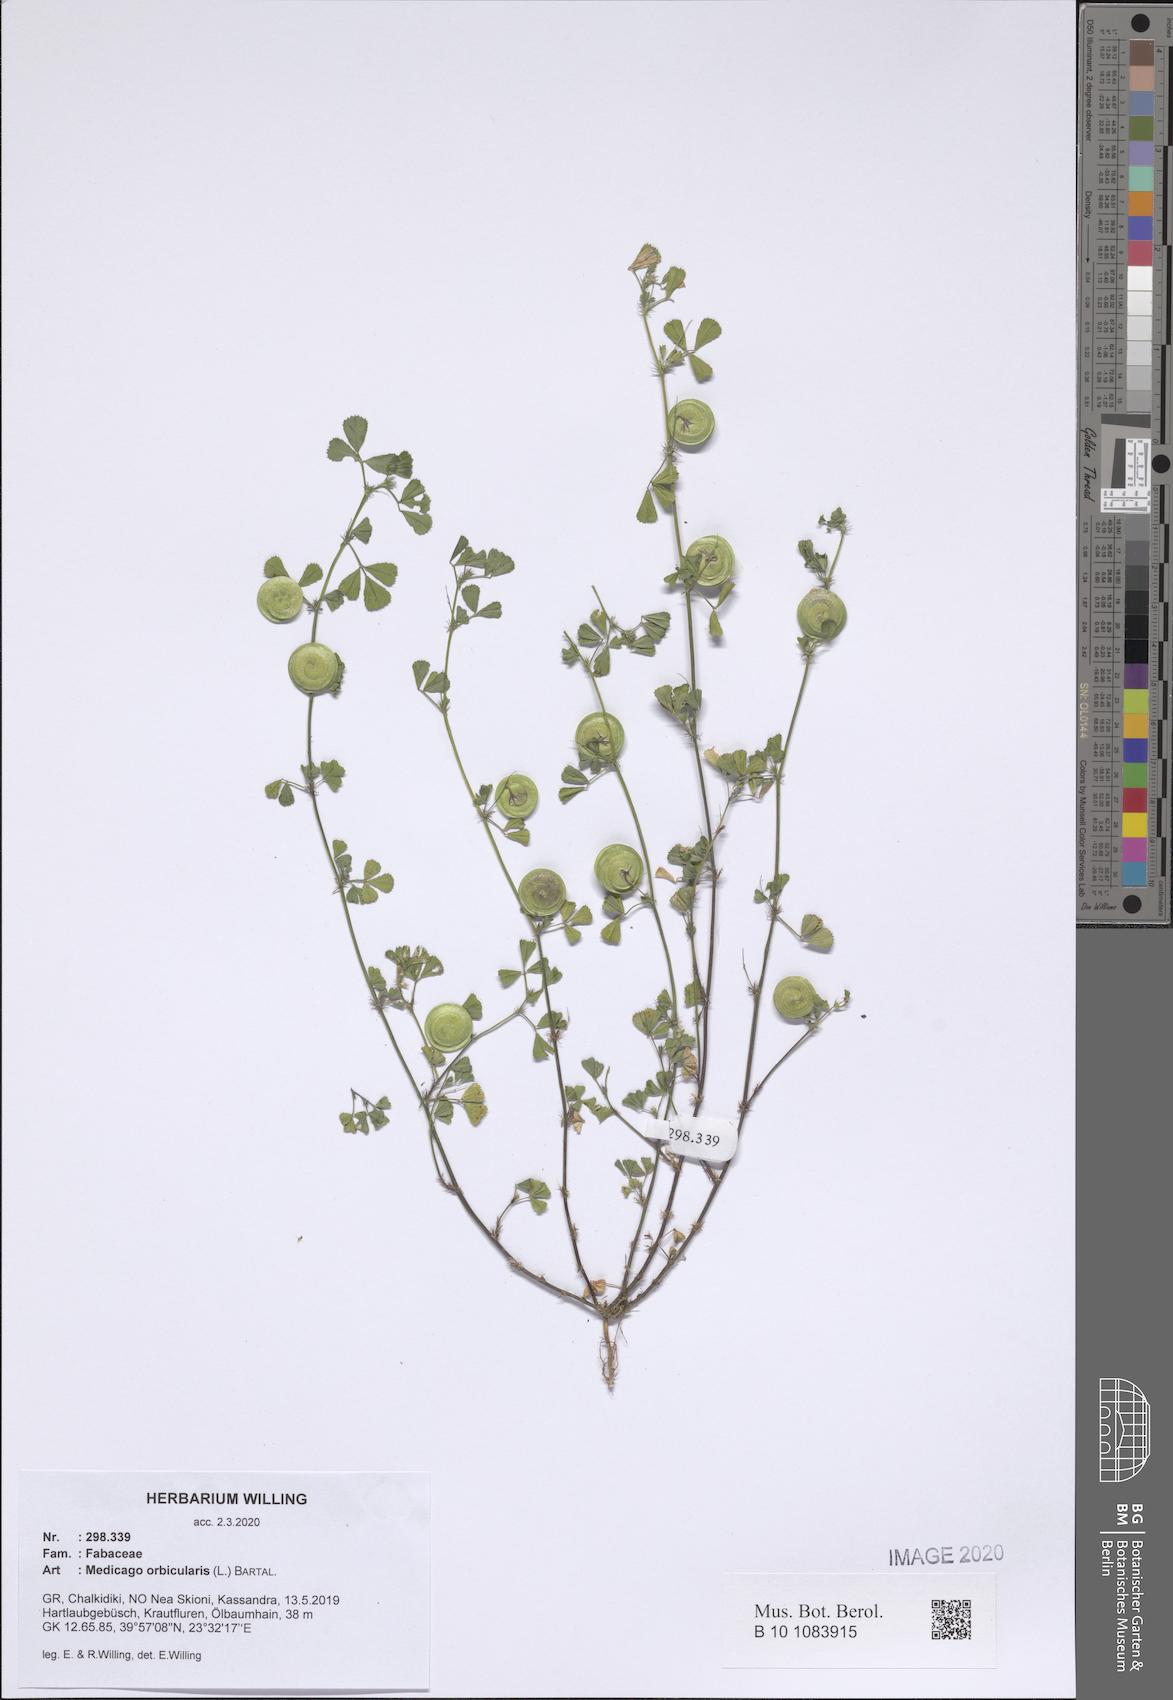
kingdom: Plantae
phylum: Tracheophyta
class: Magnoliopsida
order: Fabales
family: Fabaceae
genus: Medicago
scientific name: Medicago orbicularis
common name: Button medick
